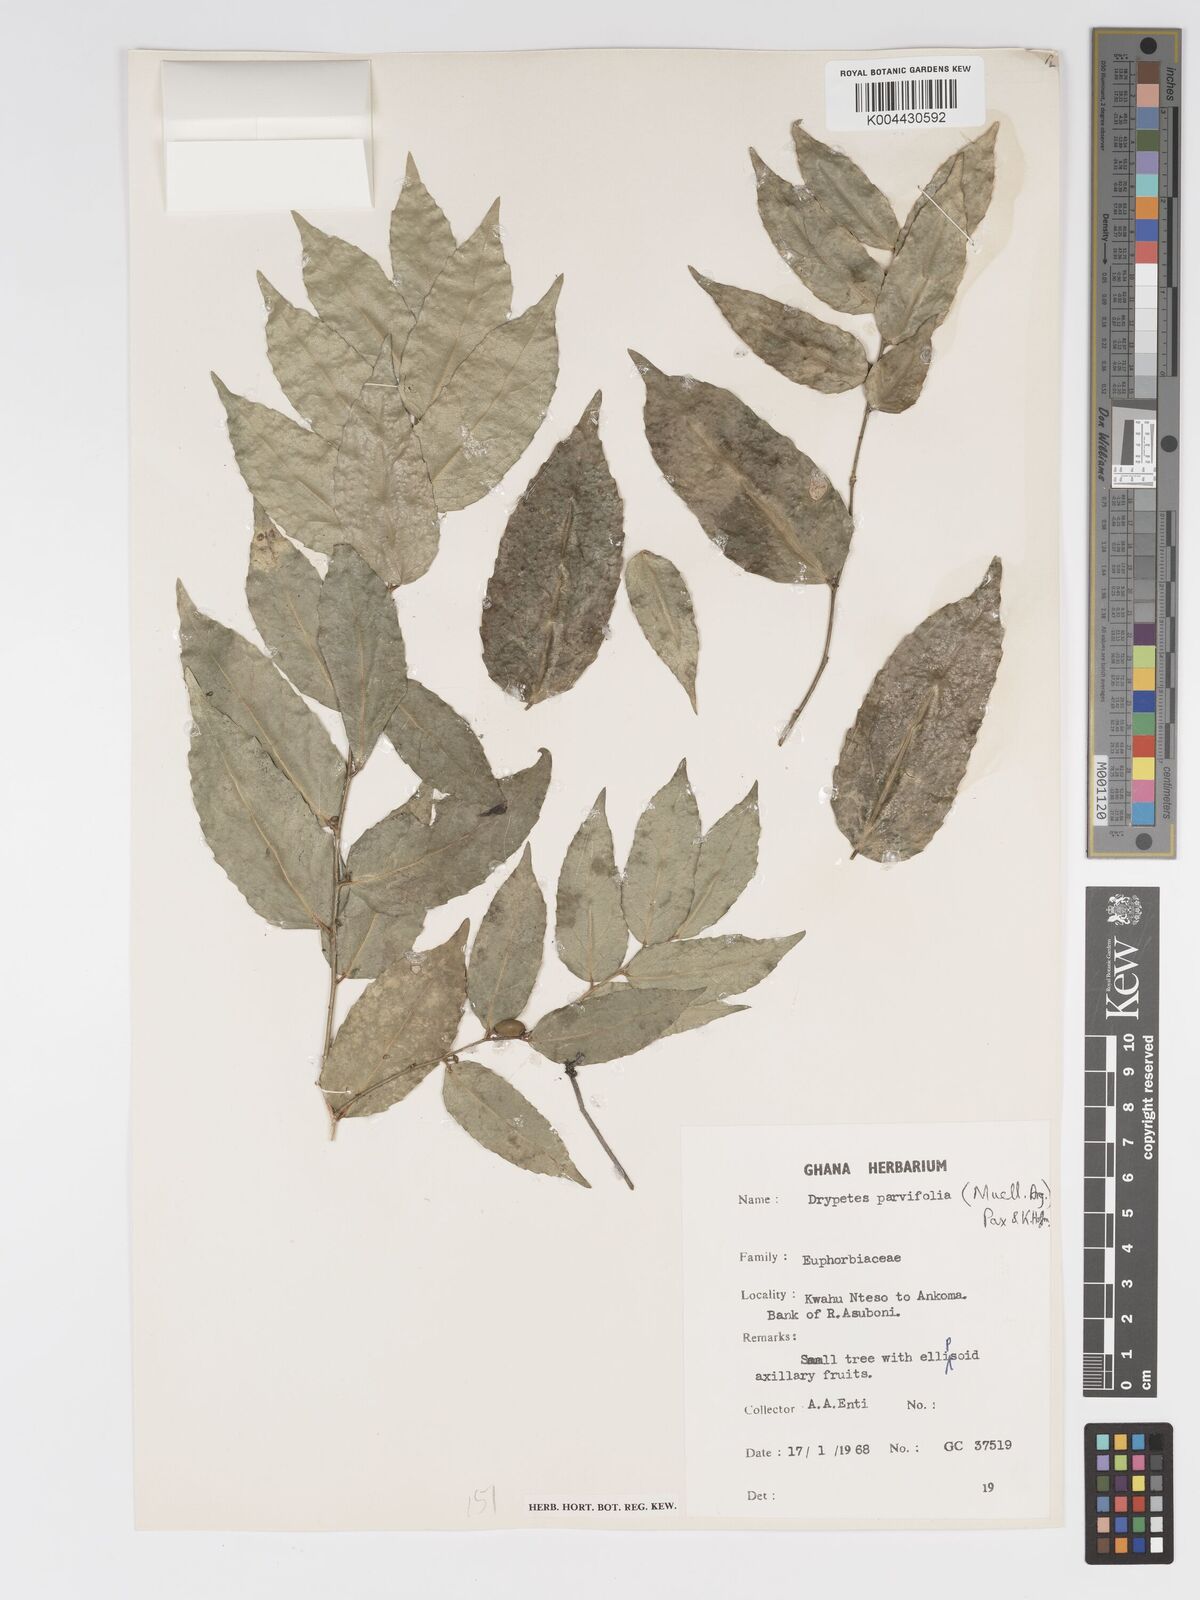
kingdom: Plantae
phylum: Tracheophyta
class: Magnoliopsida
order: Malpighiales
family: Putranjivaceae
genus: Drypetes
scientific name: Drypetes parvifolia
